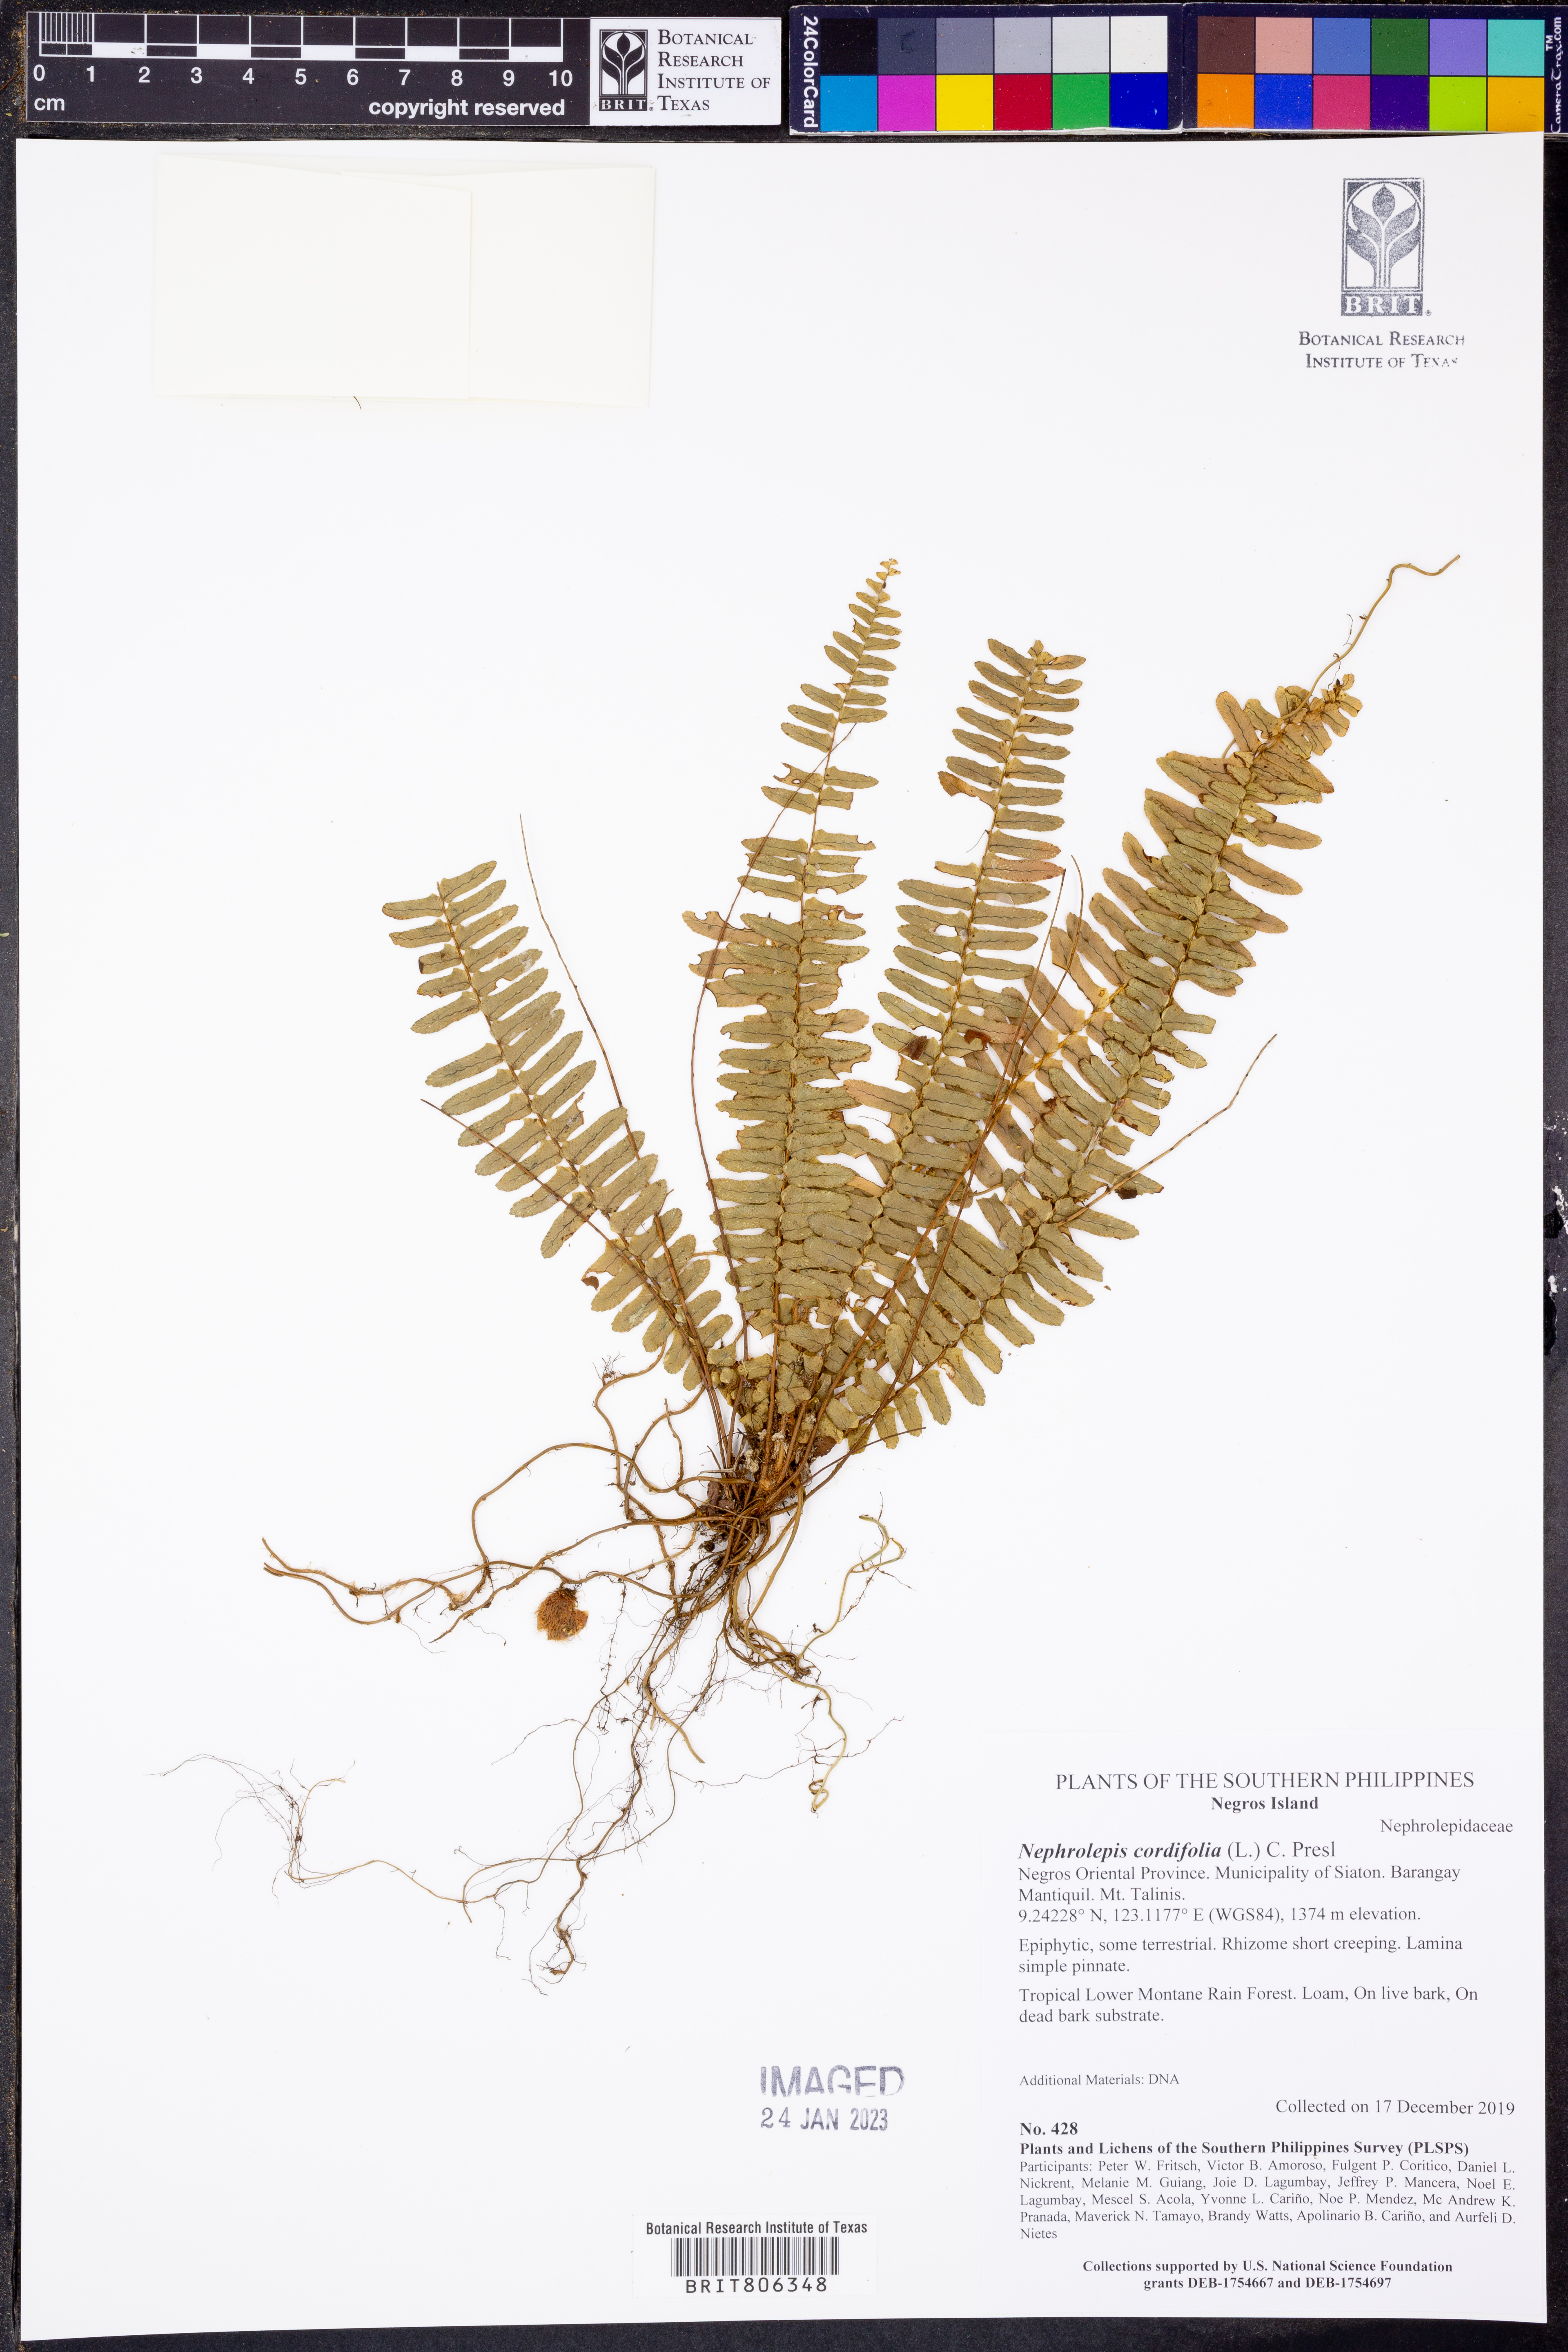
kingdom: Plantae
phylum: Tracheophyta
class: Polypodiopsida
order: Polypodiales
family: Nephrolepidaceae
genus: Nephrolepis
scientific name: Nephrolepis cordifolia
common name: Narrow swordfern
